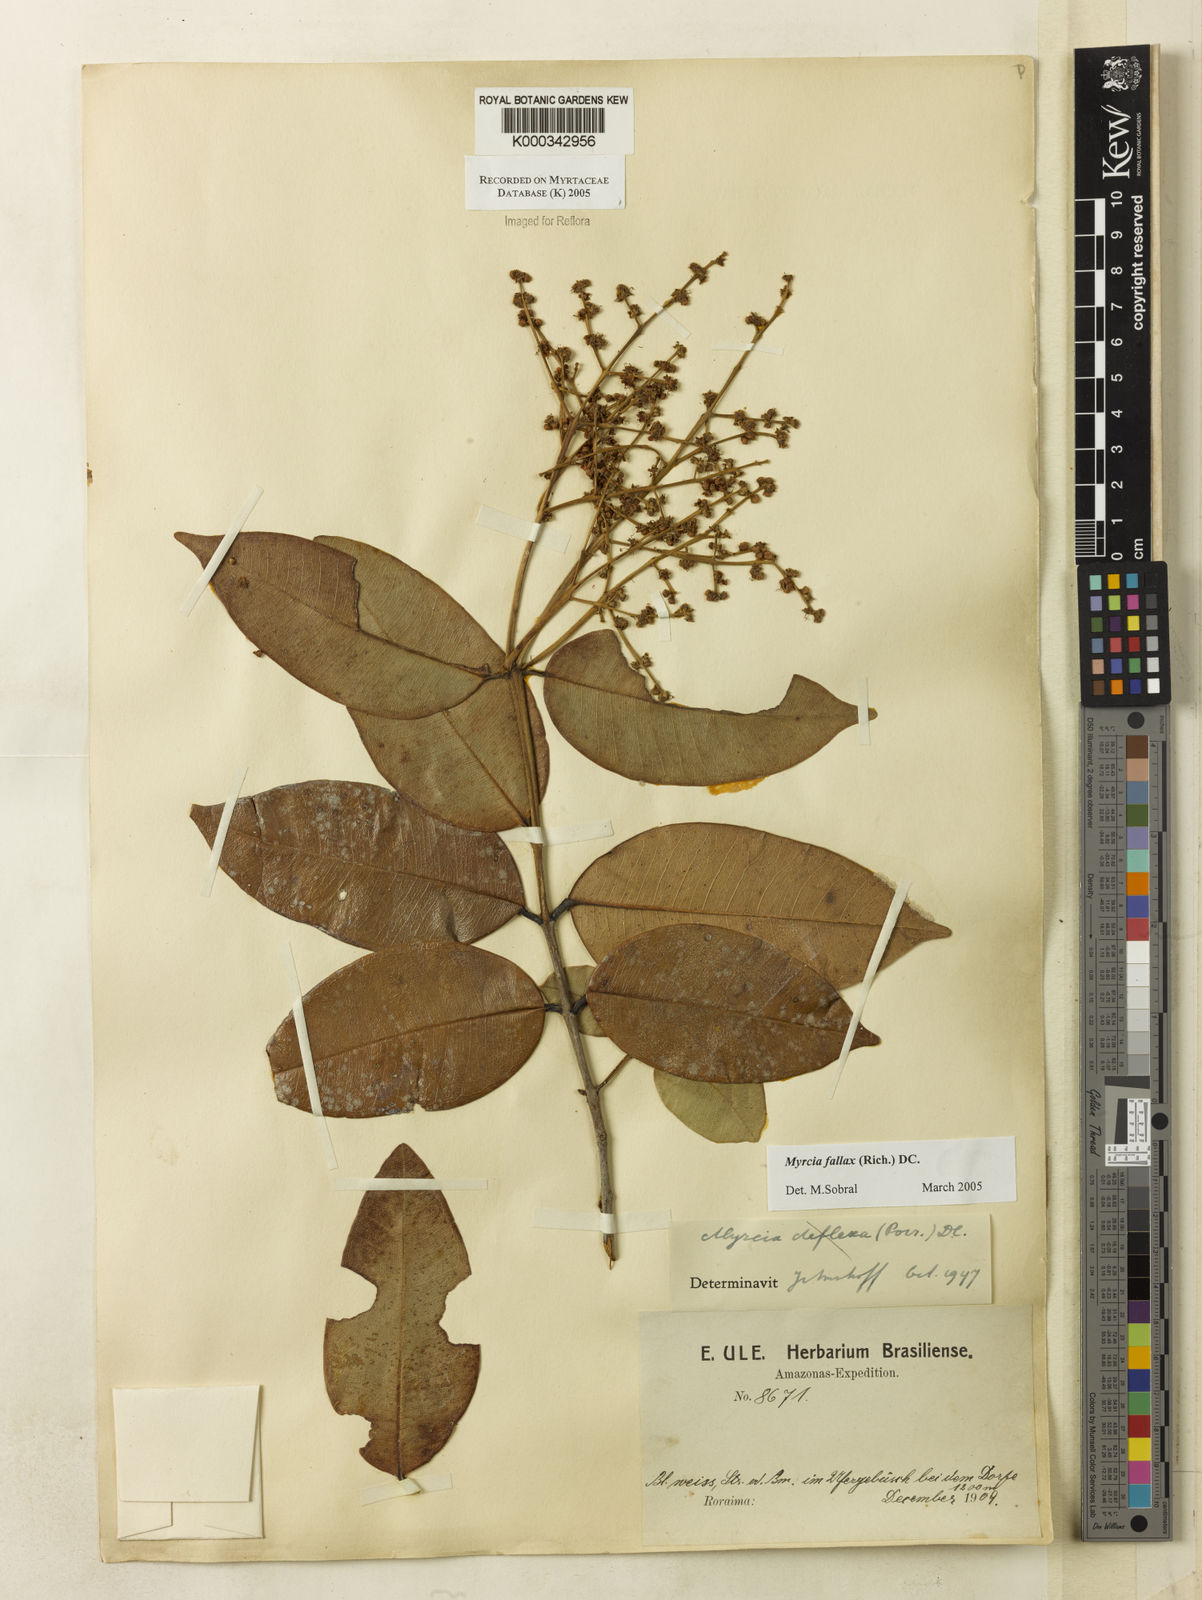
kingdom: Plantae
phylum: Tracheophyta
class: Magnoliopsida
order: Myrtales
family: Myrtaceae
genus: Myrcia
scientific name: Myrcia splendens
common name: Surinam cherry
